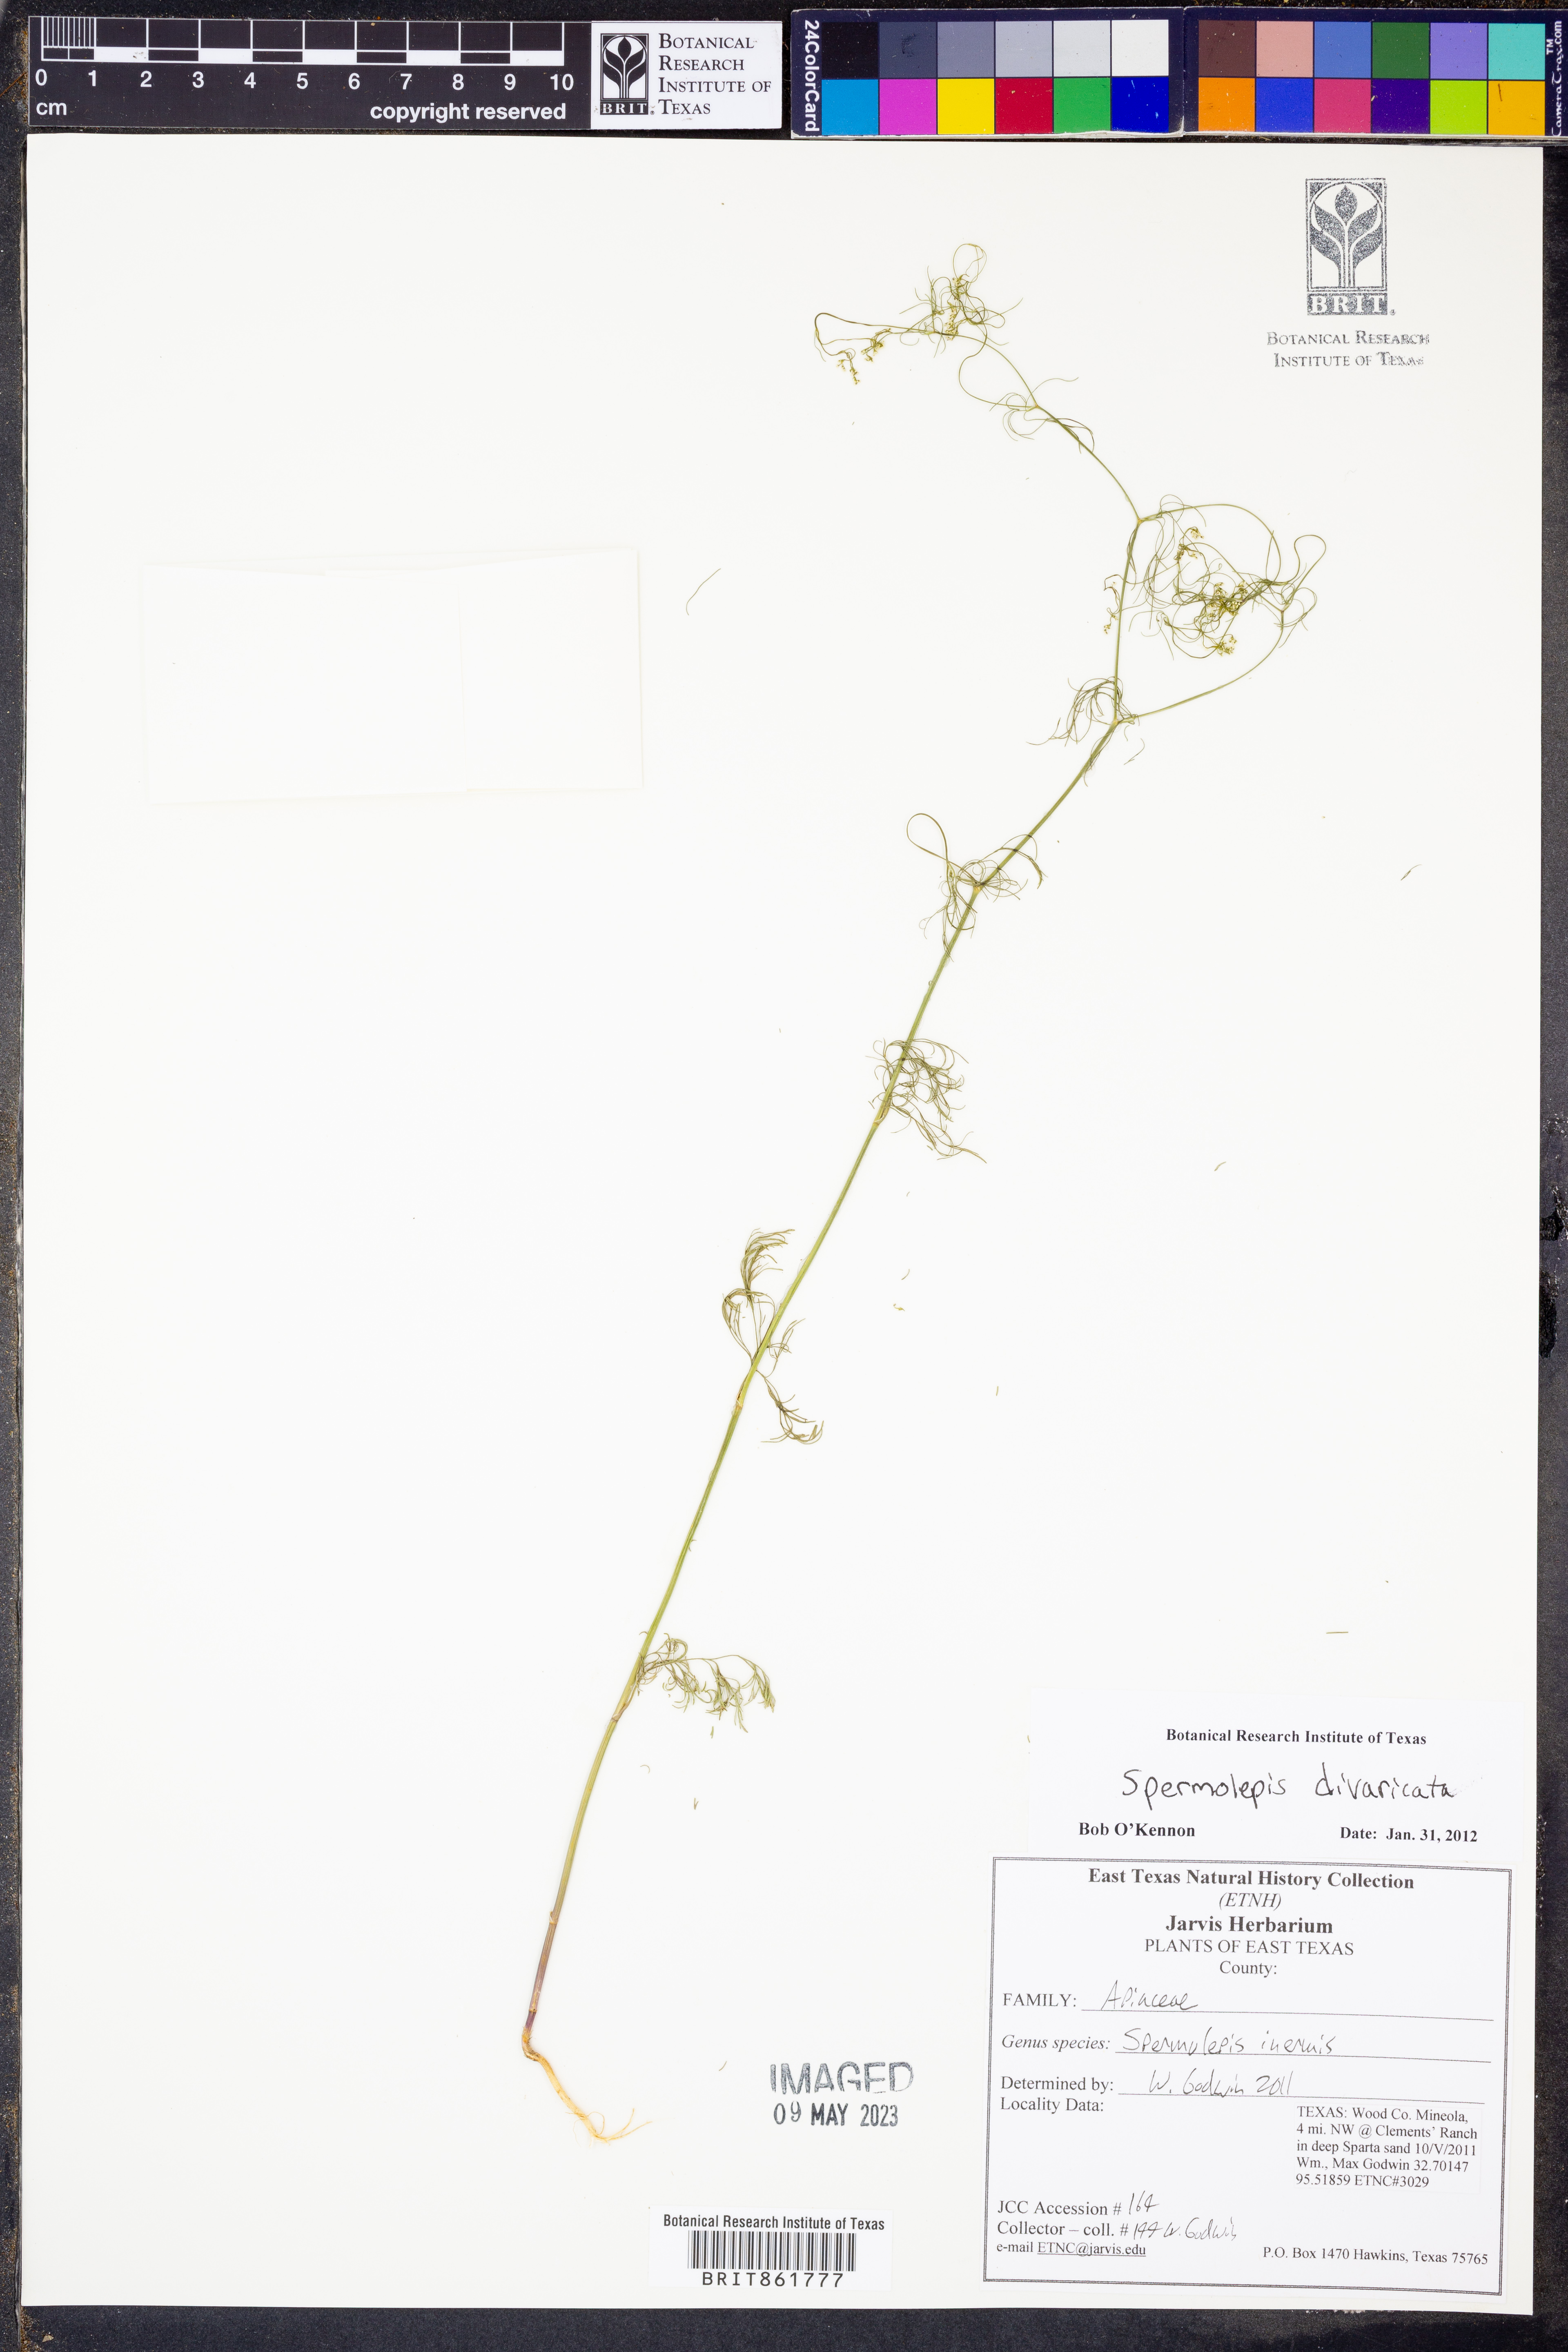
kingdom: Plantae
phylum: Tracheophyta
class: Magnoliopsida
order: Apiales
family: Apiaceae
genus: Spermolepis
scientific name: Spermolepis divaricata
